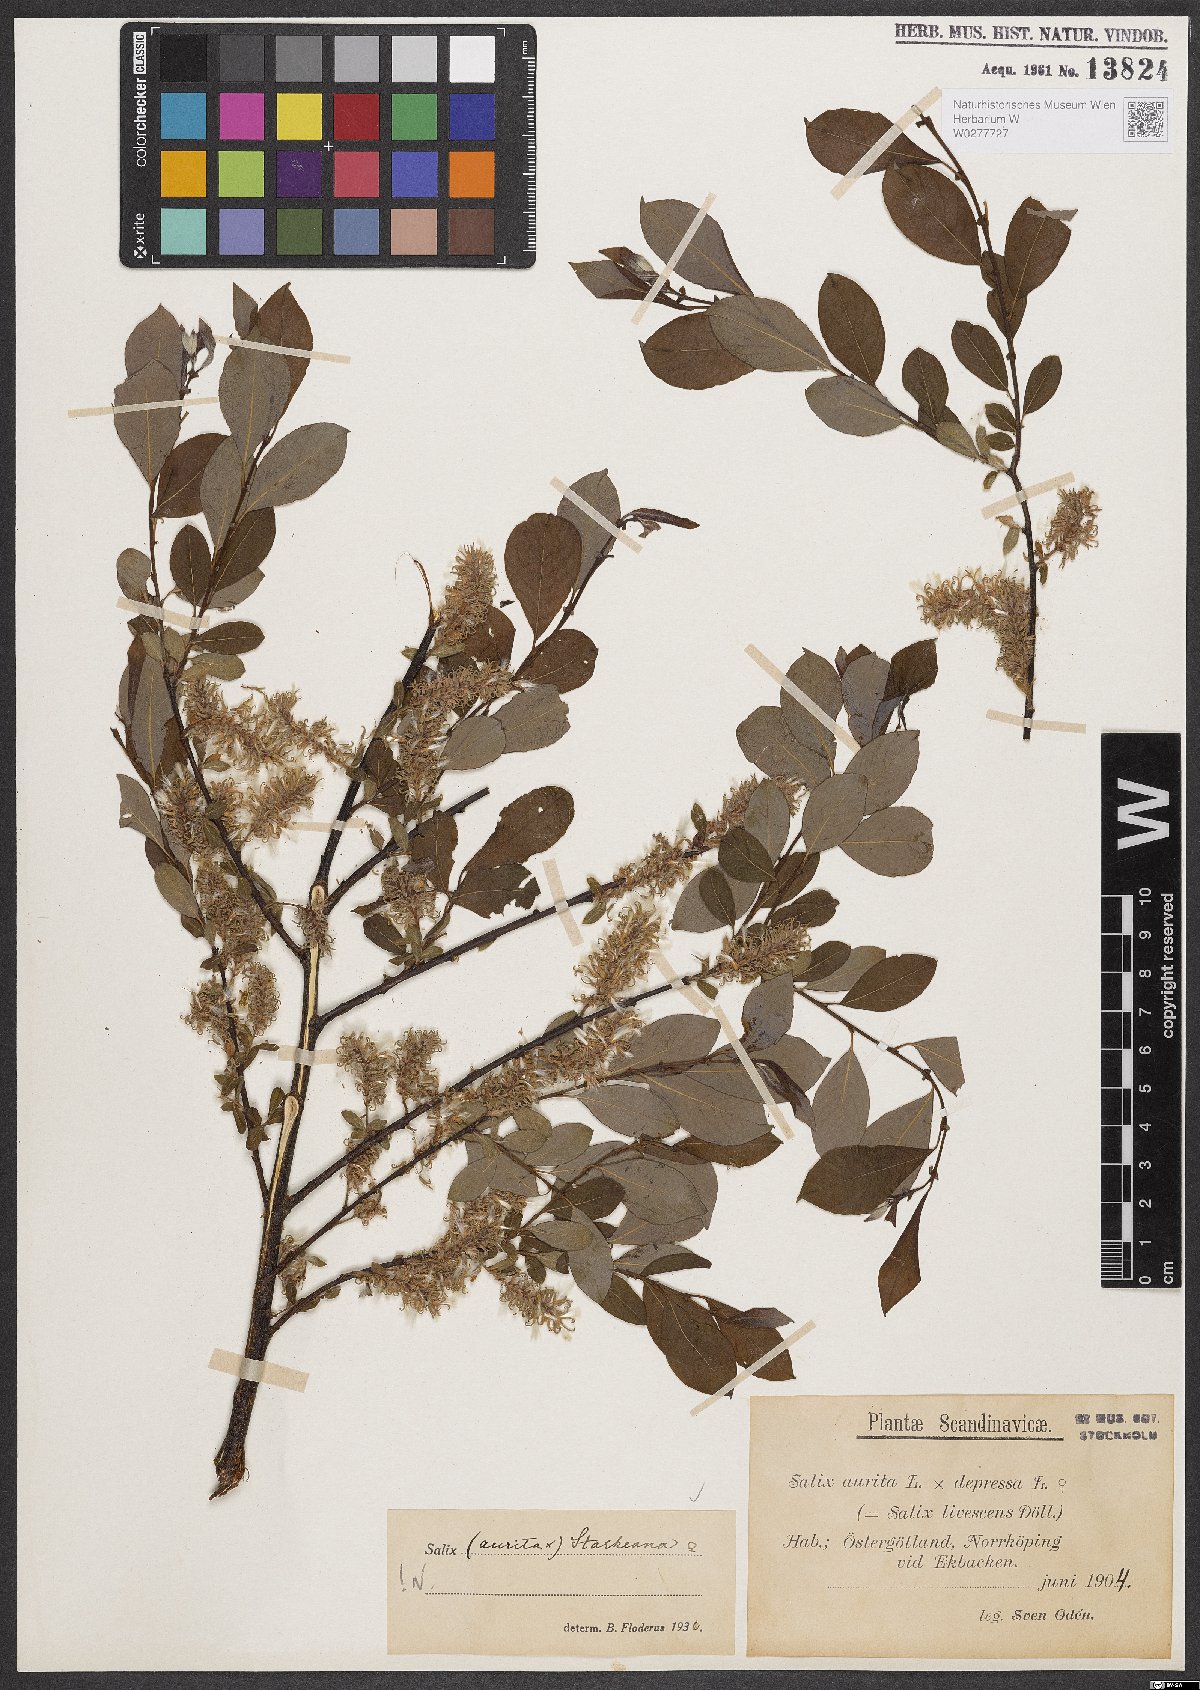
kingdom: Plantae
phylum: Tracheophyta
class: Magnoliopsida
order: Malpighiales
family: Salicaceae
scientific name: Salicaceae
